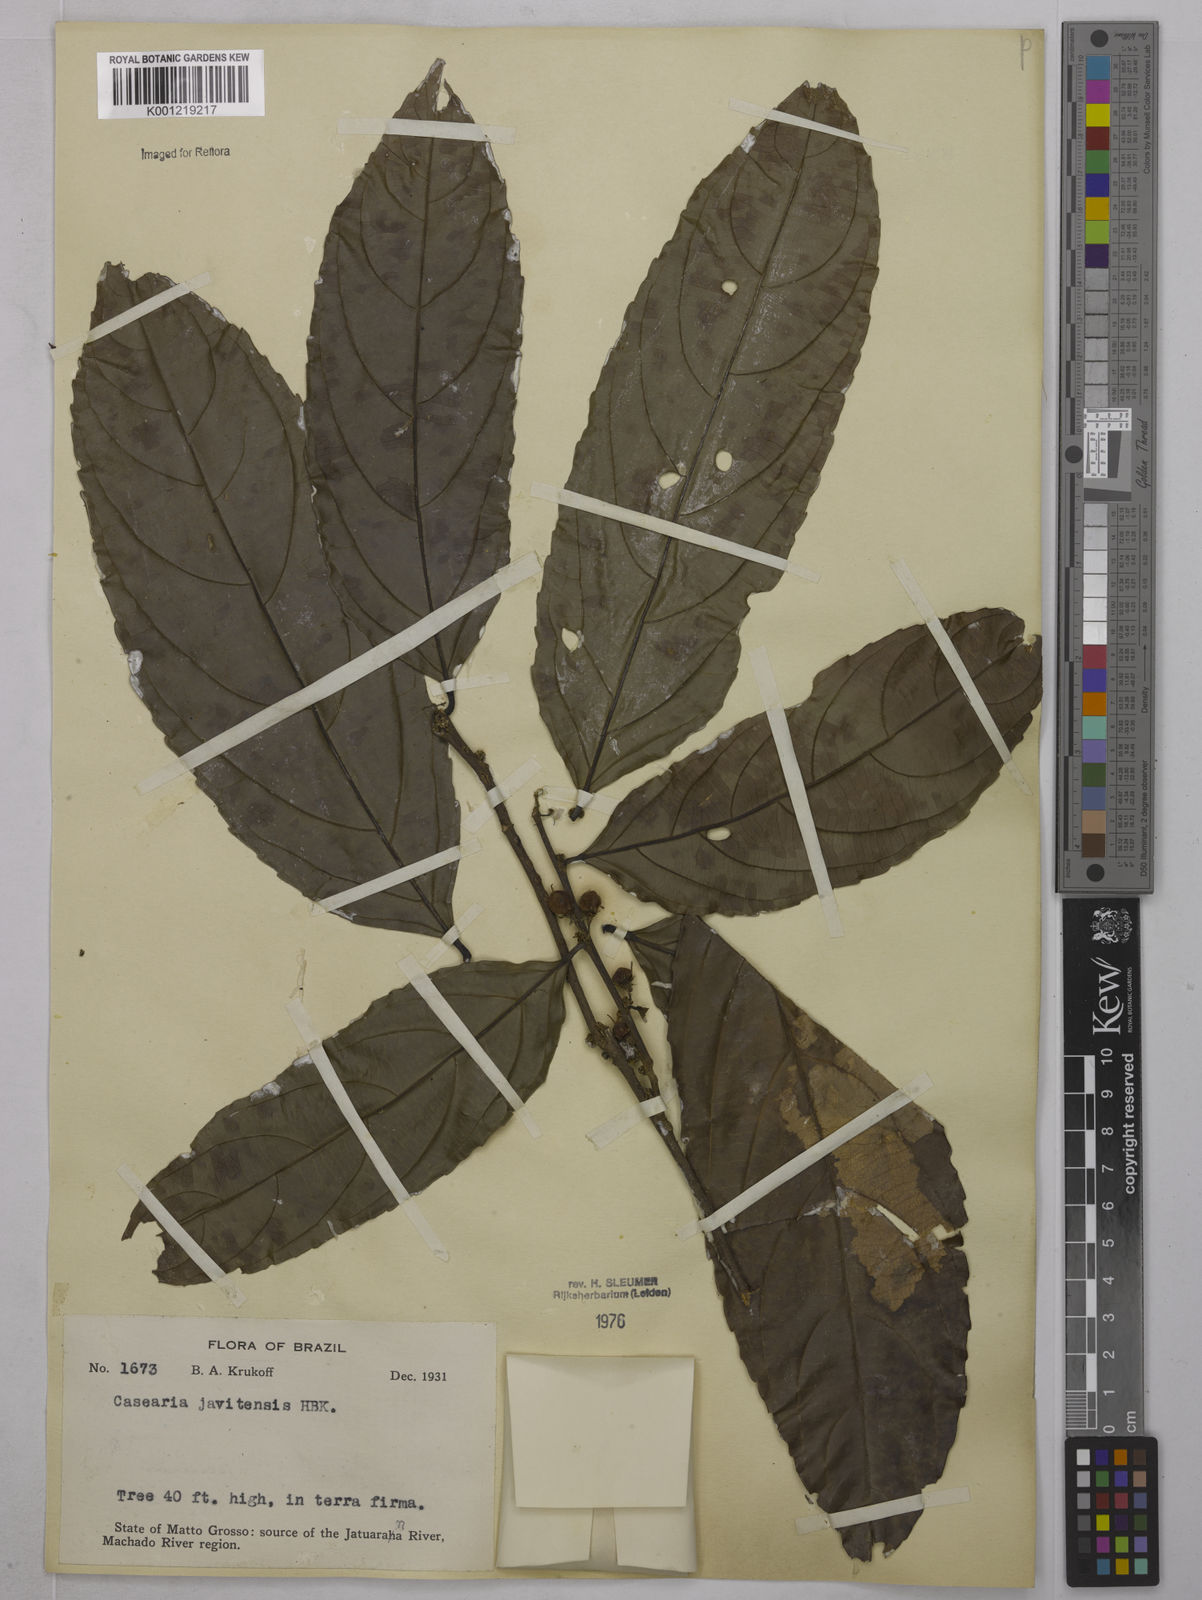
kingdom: Plantae
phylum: Tracheophyta
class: Magnoliopsida
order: Malpighiales
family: Salicaceae
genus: Piparea
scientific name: Piparea multiflora
